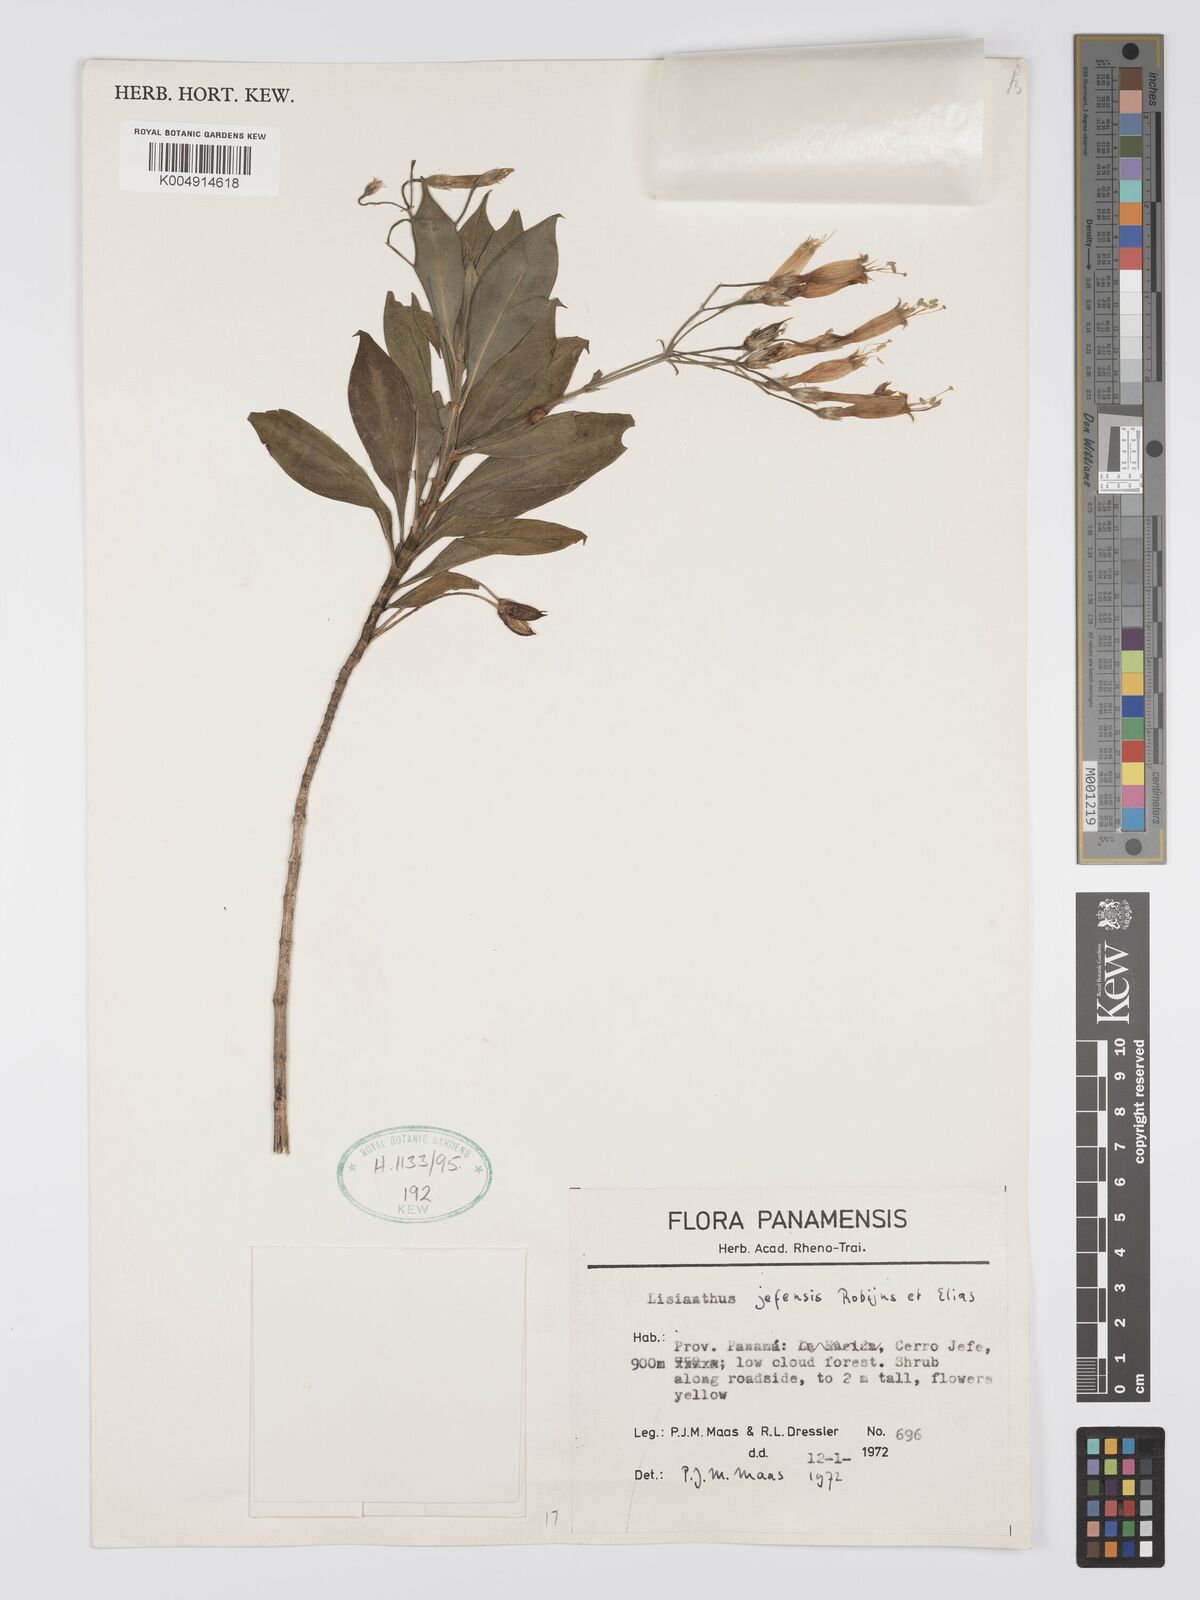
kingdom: Plantae
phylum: Tracheophyta
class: Magnoliopsida
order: Gentianales
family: Gentianaceae
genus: Lisianthius
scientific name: Lisianthius jefensis
